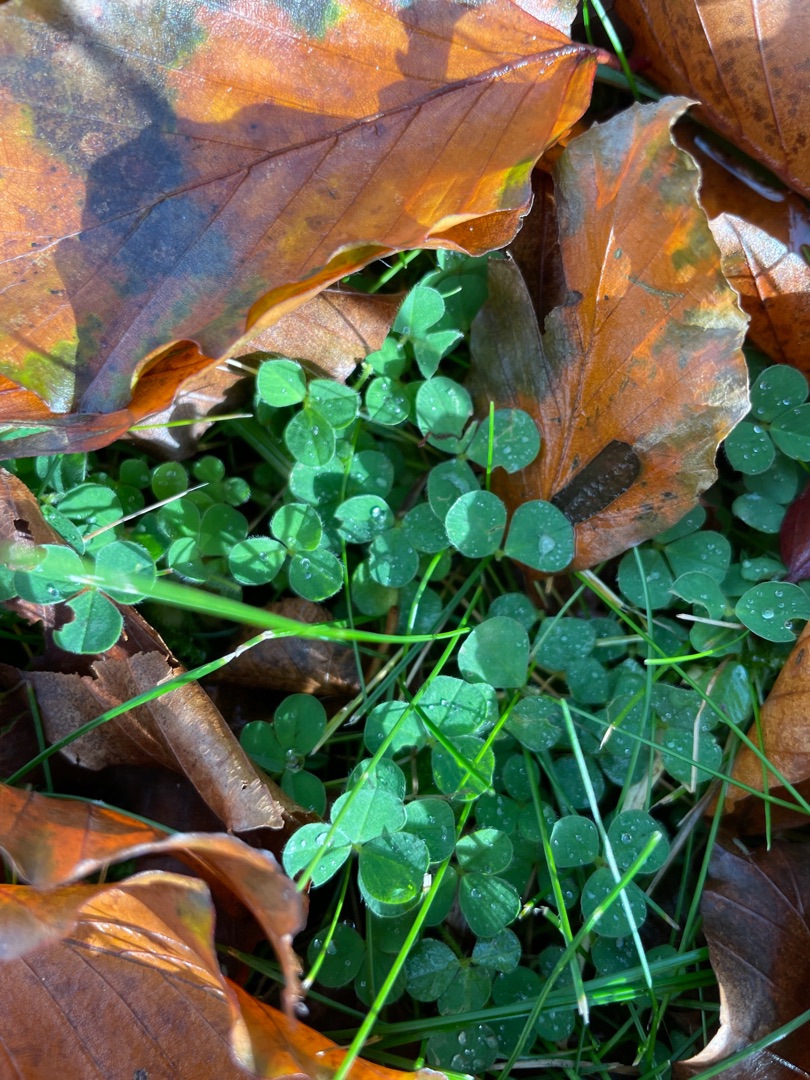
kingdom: Plantae
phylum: Tracheophyta
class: Magnoliopsida
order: Fabales
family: Fabaceae
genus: Trifolium
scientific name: Trifolium
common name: Kløverslægten
